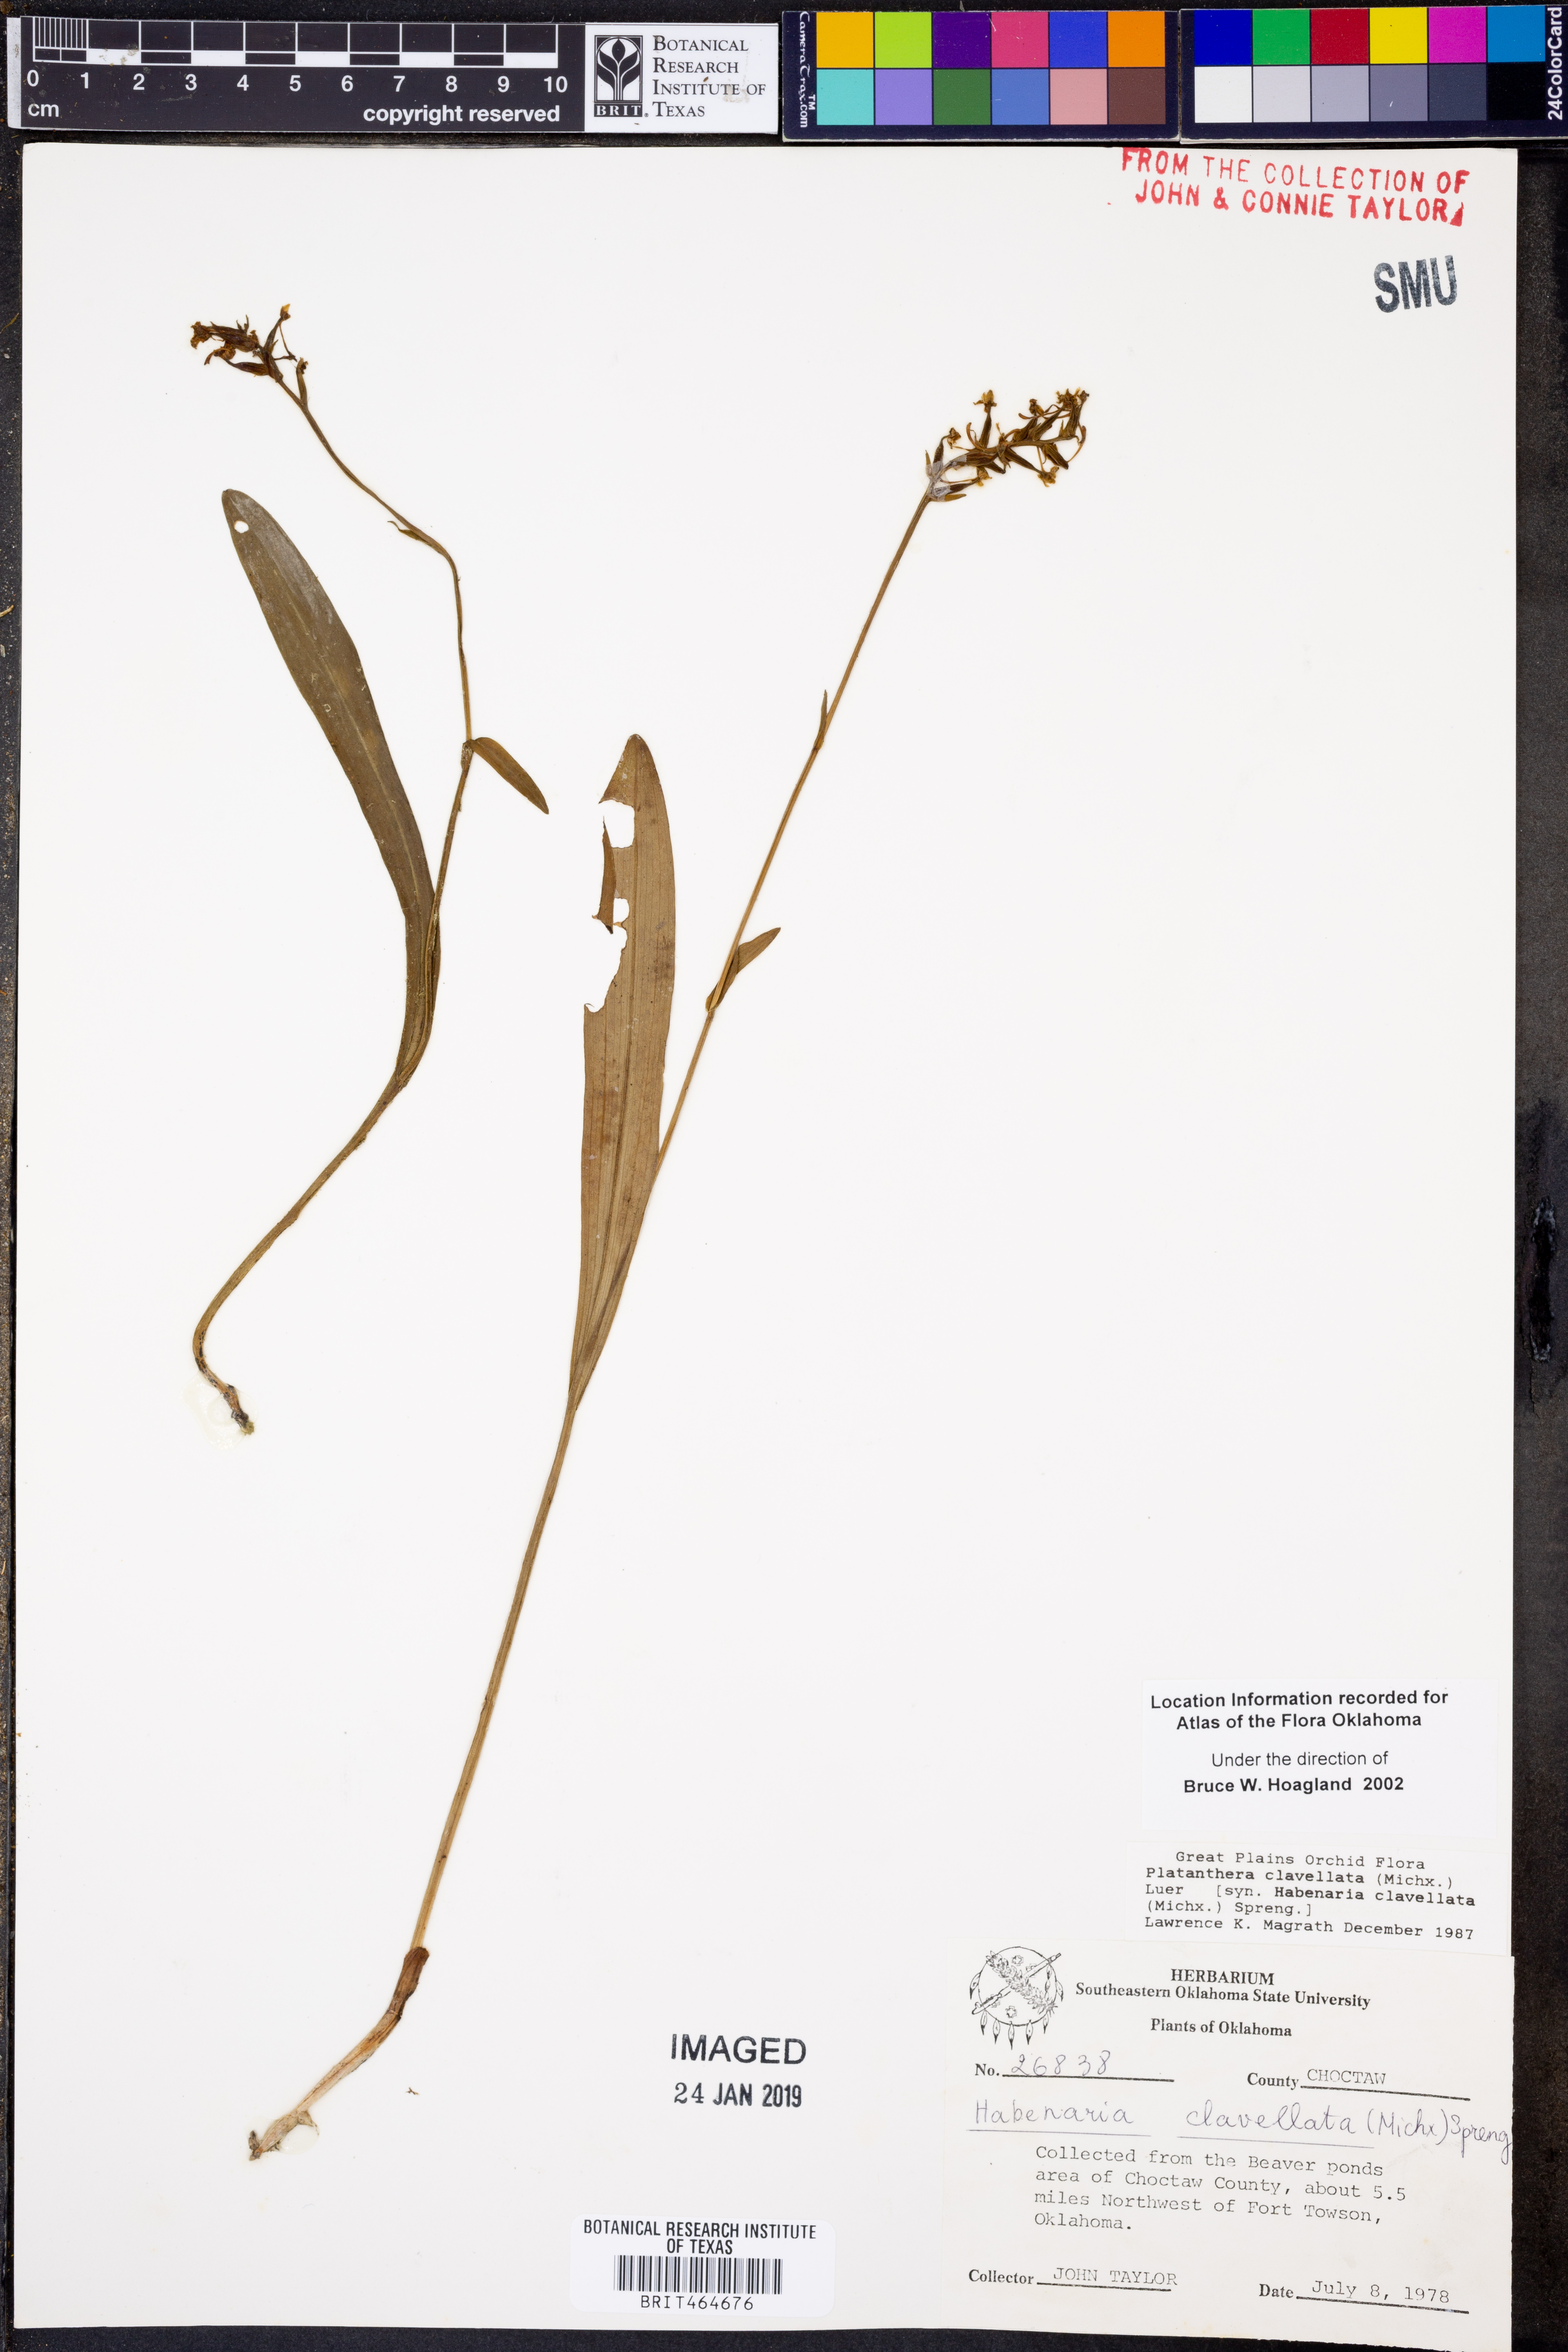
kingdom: Plantae
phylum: Tracheophyta
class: Liliopsida
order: Asparagales
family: Orchidaceae
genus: Platanthera
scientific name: Platanthera clavellata
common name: Club-spur orchid
